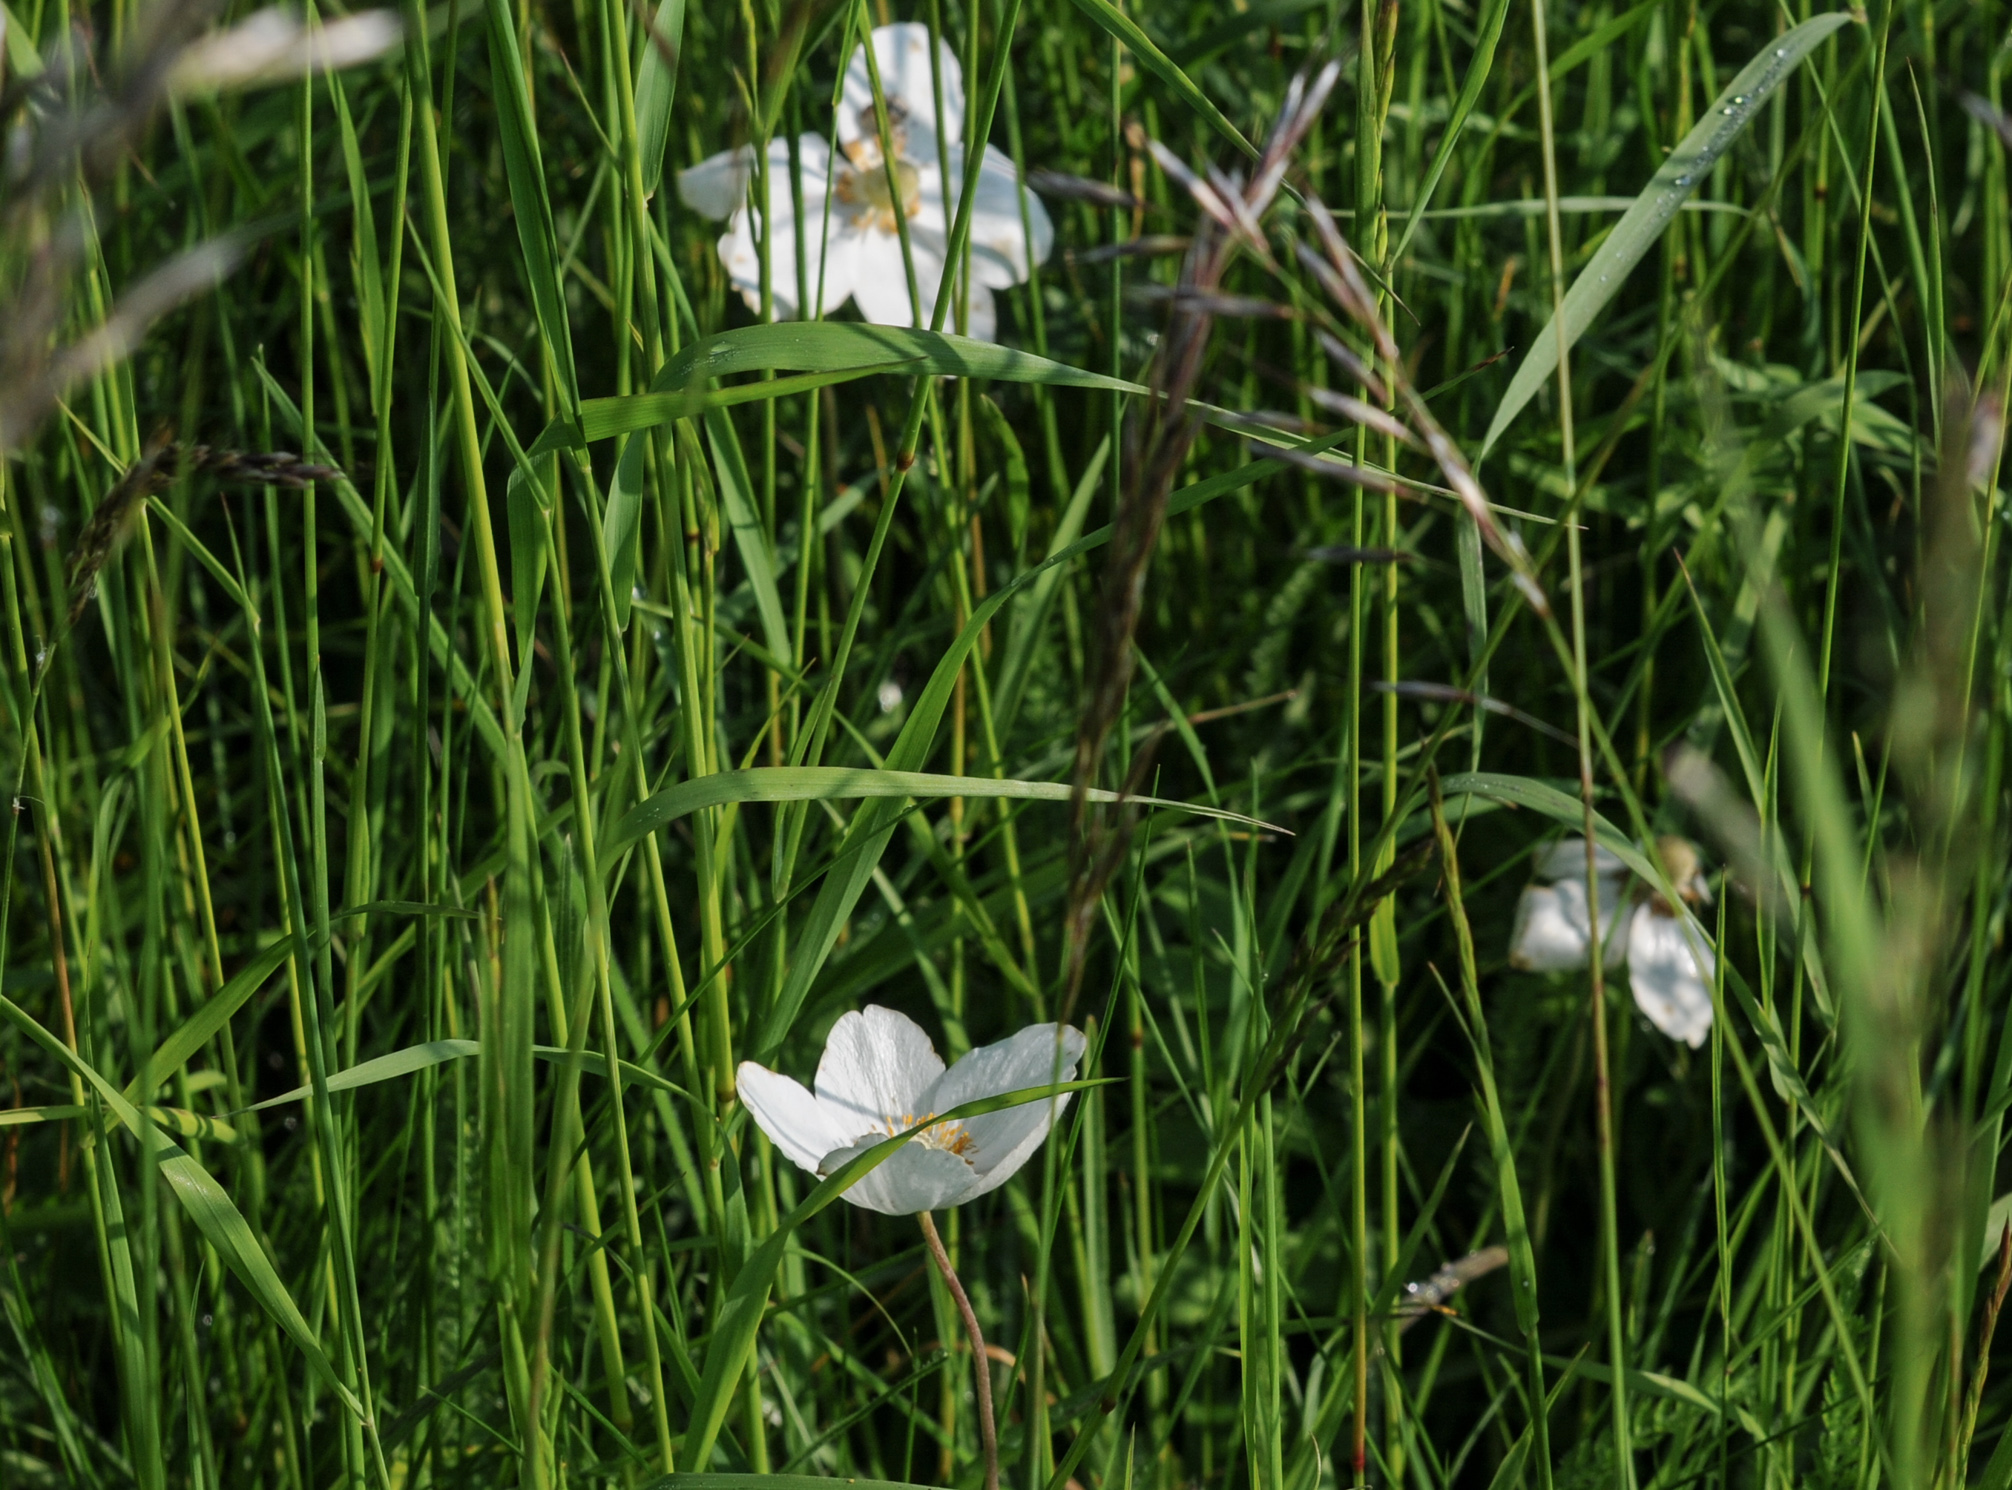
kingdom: Plantae
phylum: Tracheophyta
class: Magnoliopsida
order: Ranunculales
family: Ranunculaceae
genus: Anemone
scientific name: Anemone sylvestris
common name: Snowdrop anemone
